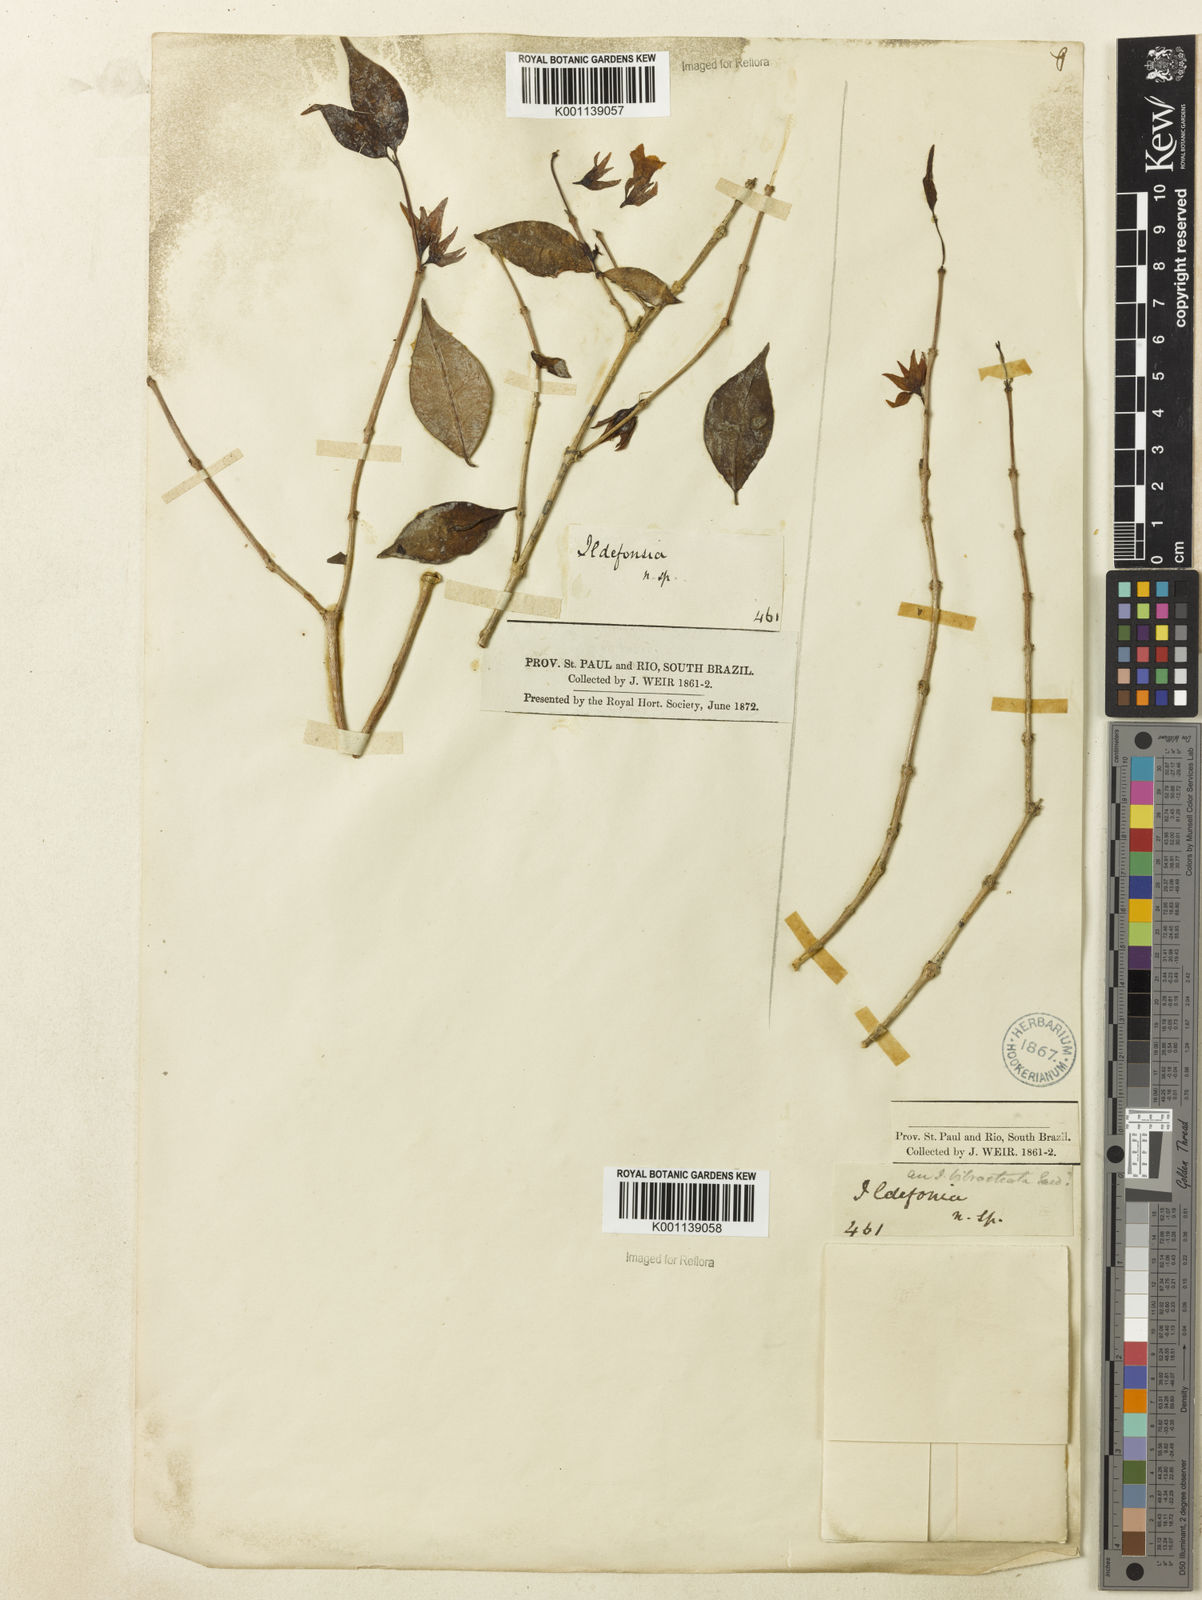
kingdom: Plantae
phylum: Tracheophyta
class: Magnoliopsida
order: Lamiales
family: Plantaginaceae
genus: Bacopa
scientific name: Bacopa
